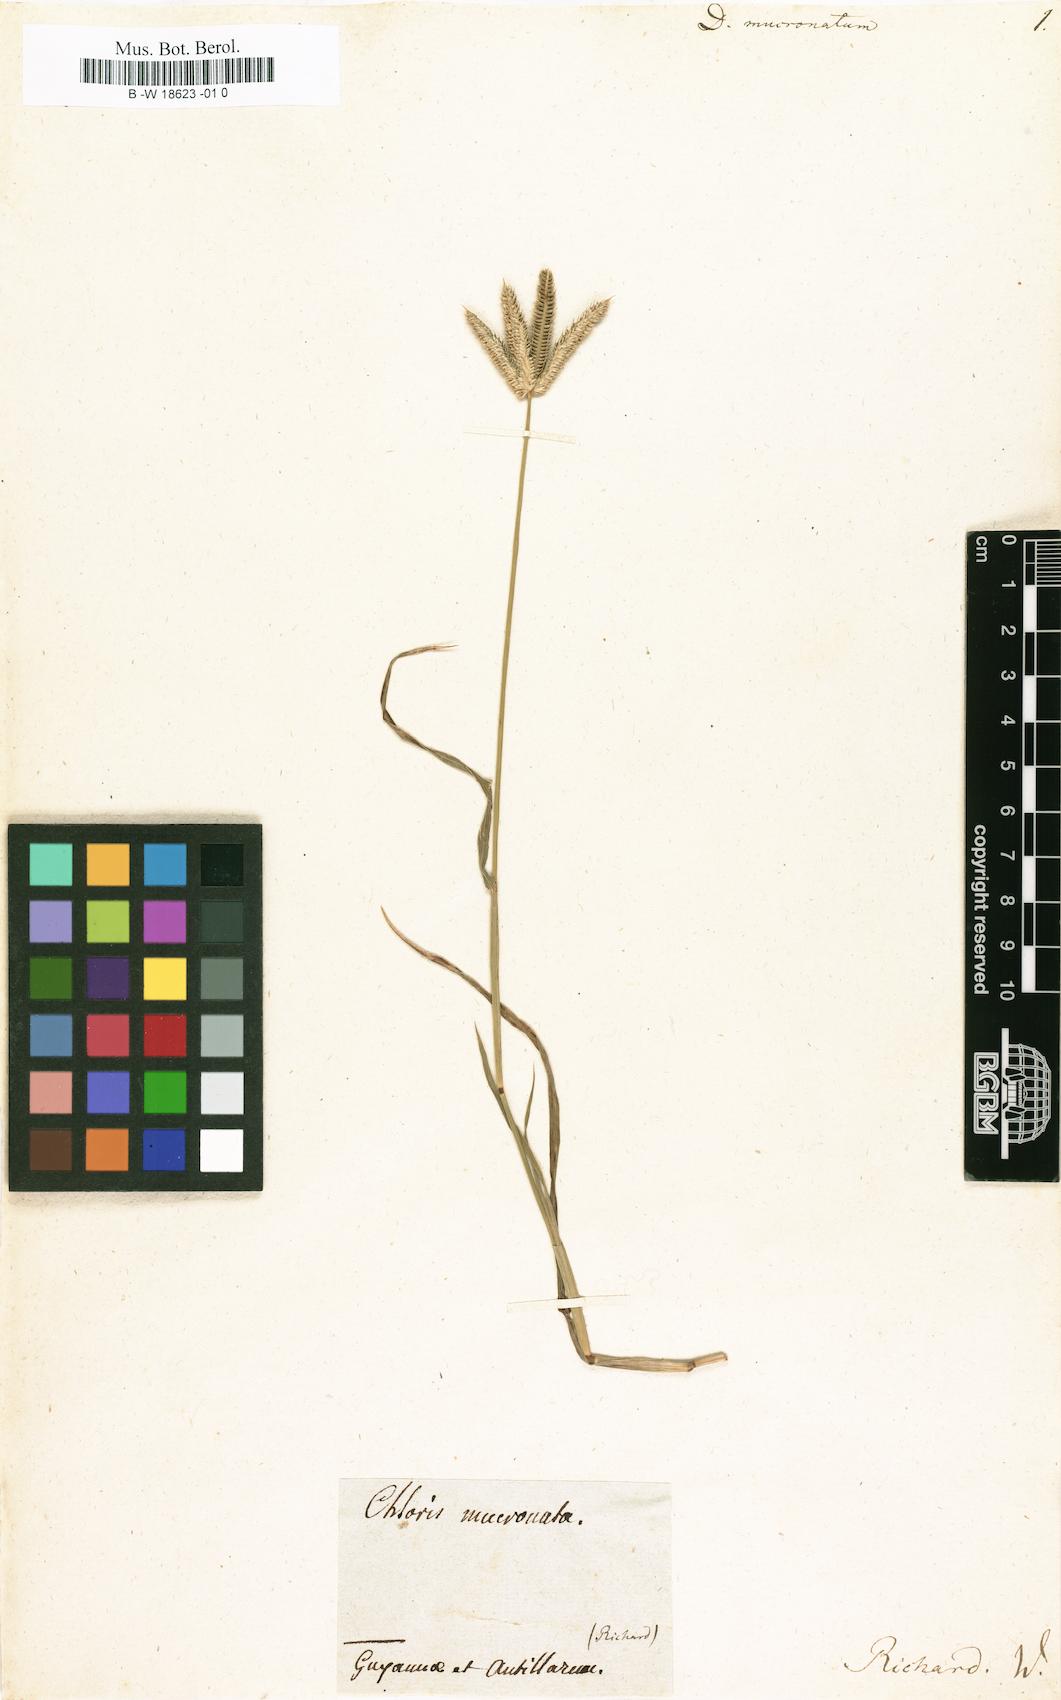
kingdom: Plantae
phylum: Tracheophyta
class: Liliopsida
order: Poales
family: Poaceae
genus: Dactyloctenium
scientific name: Dactyloctenium aegyptium
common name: Egyptian grass
